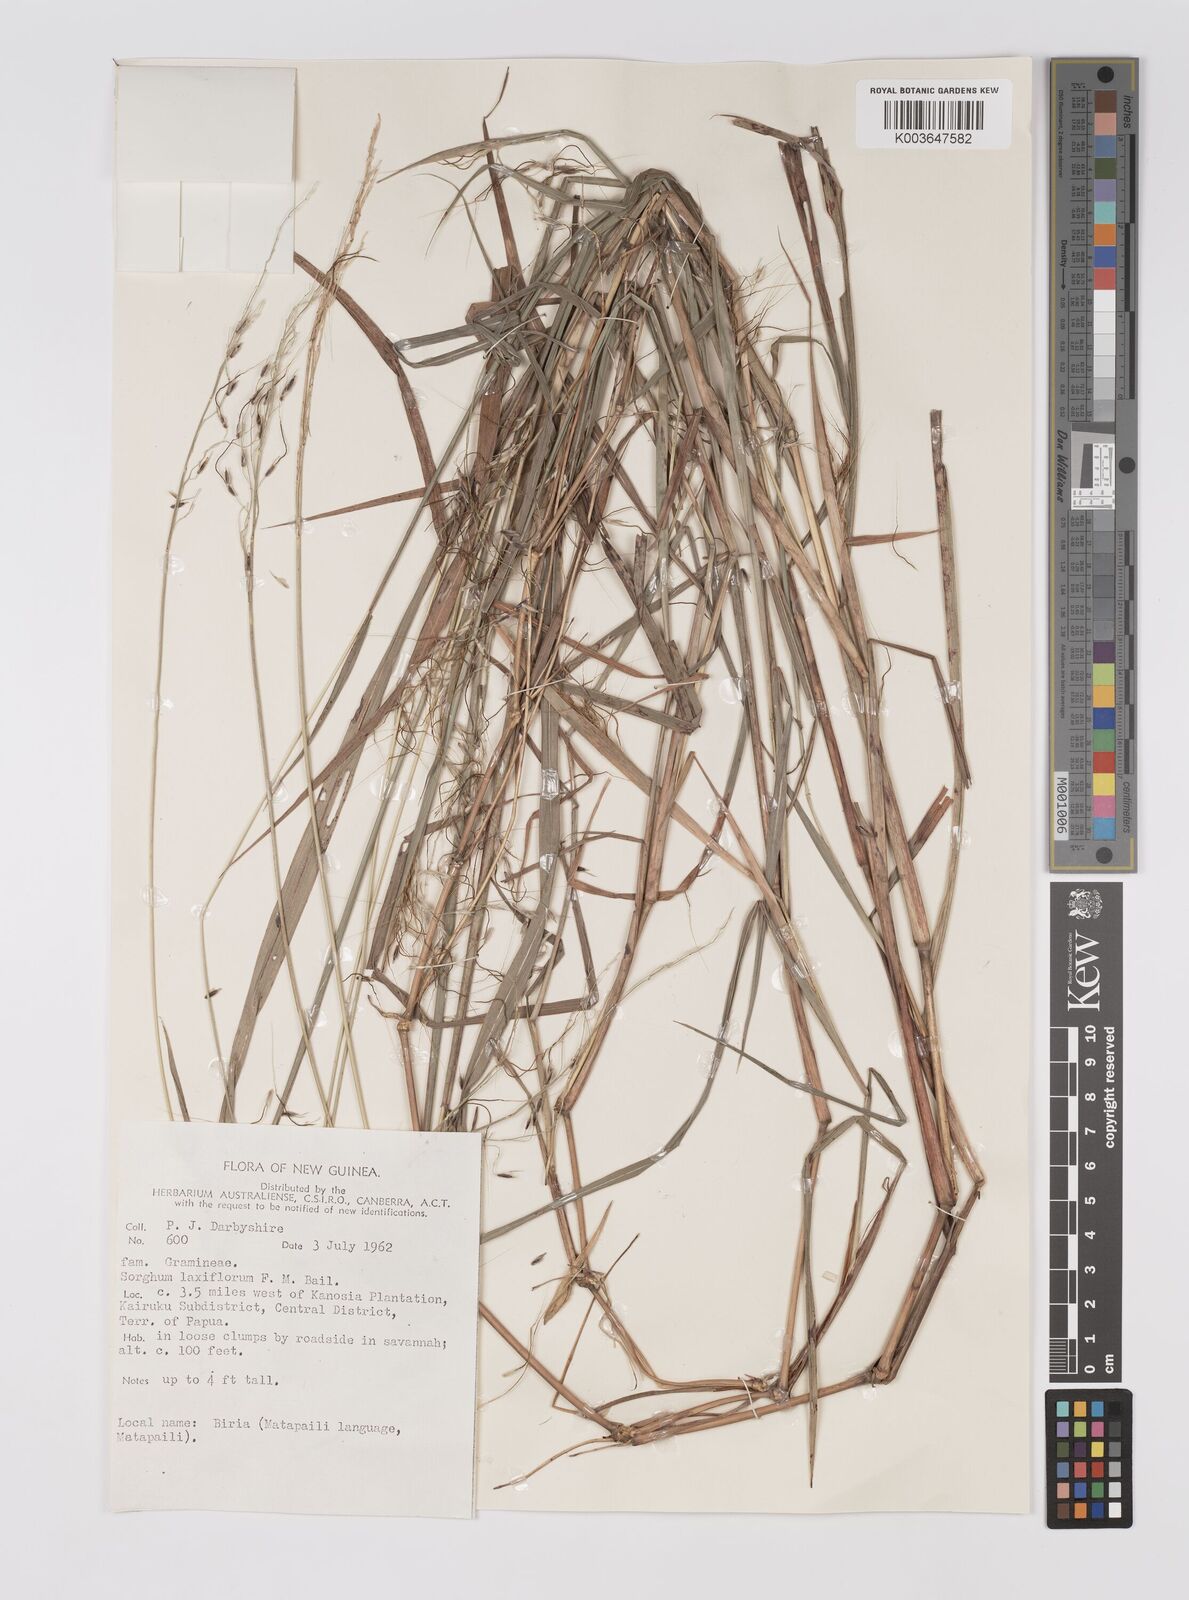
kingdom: Plantae
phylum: Tracheophyta
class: Liliopsida
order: Poales
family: Poaceae
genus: Sorghum
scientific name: Sorghum laxiflorum
